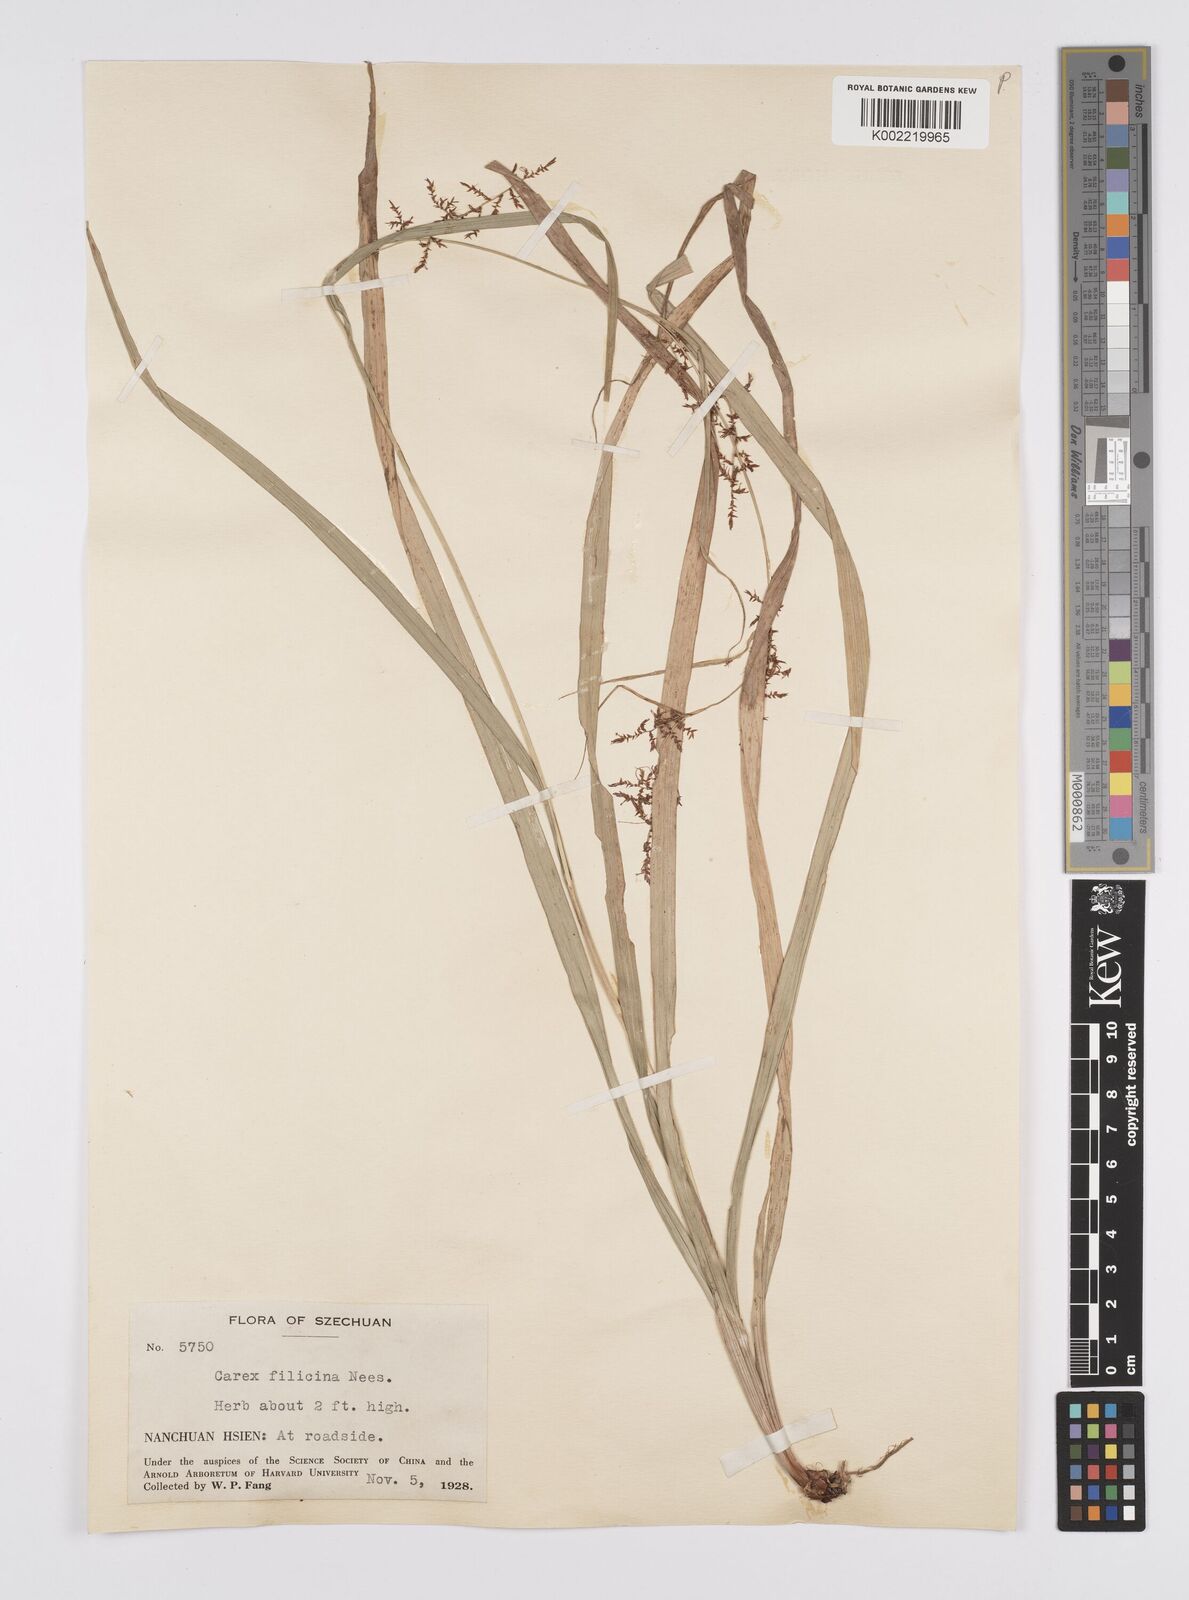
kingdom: Plantae
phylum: Tracheophyta
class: Liliopsida
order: Poales
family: Cyperaceae
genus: Carex
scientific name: Carex filicina
